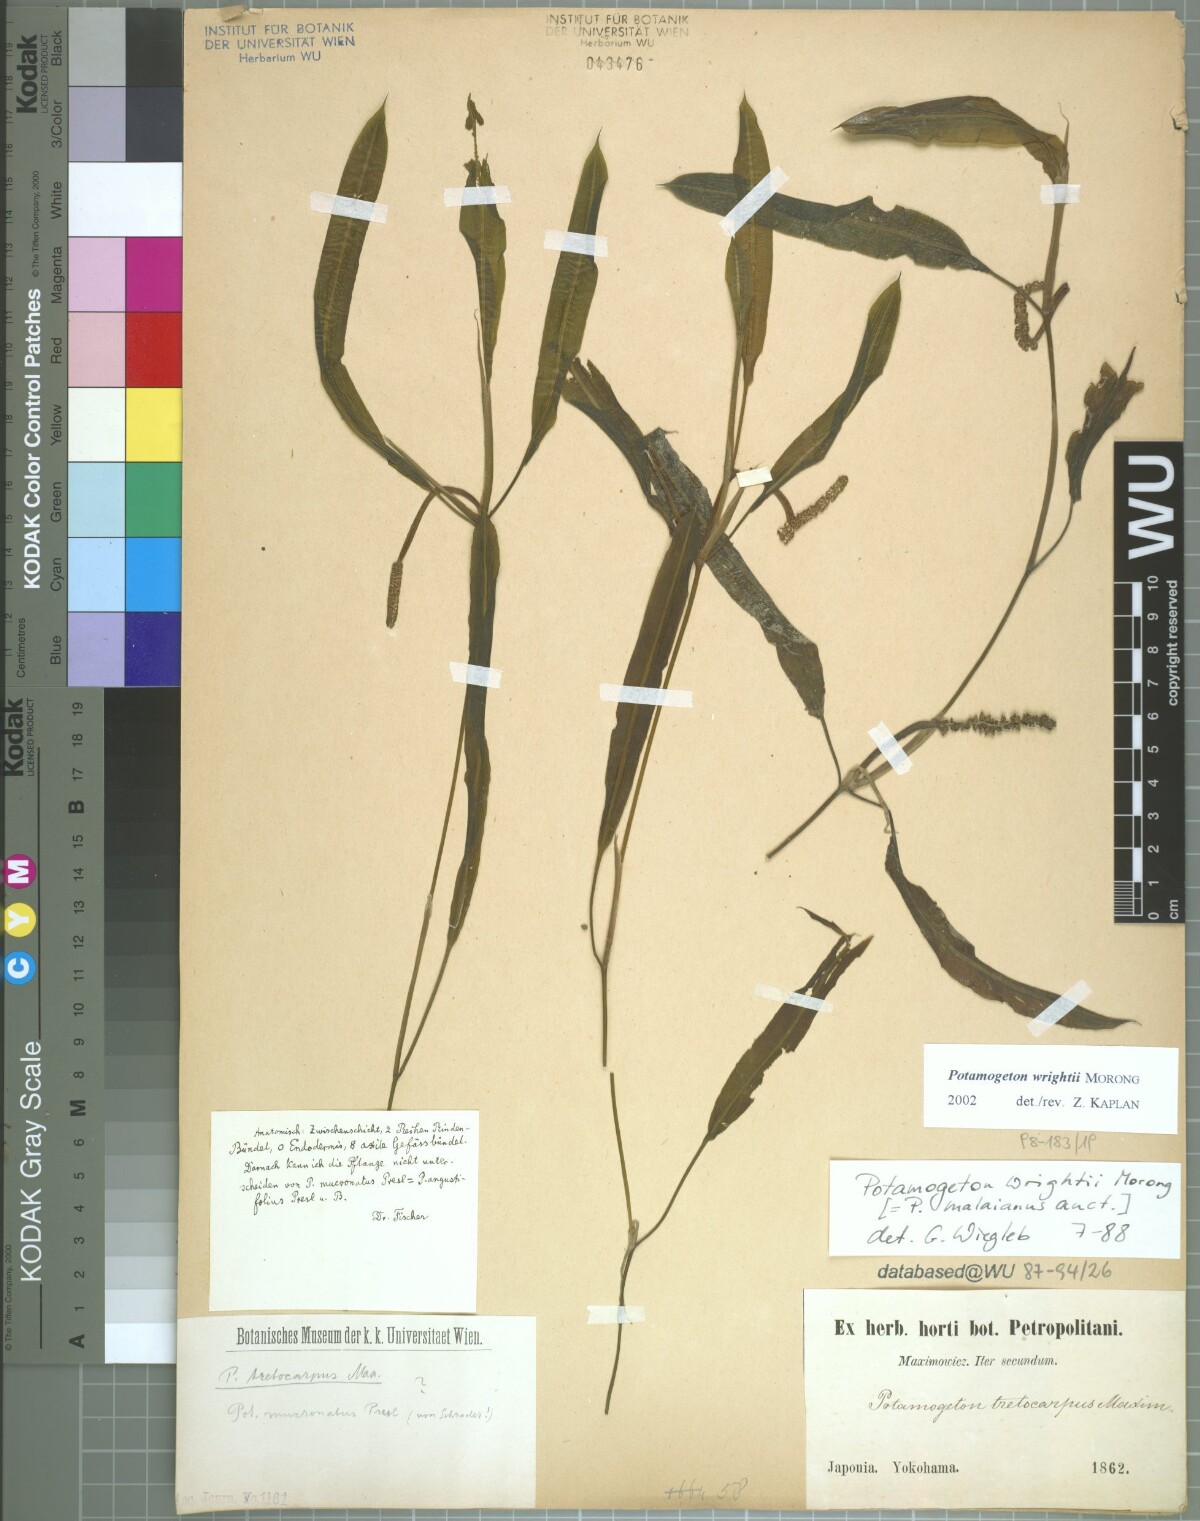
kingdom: Plantae
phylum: Tracheophyta
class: Liliopsida
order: Alismatales
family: Potamogetonaceae
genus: Potamogeton
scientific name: Potamogeton wrightii
